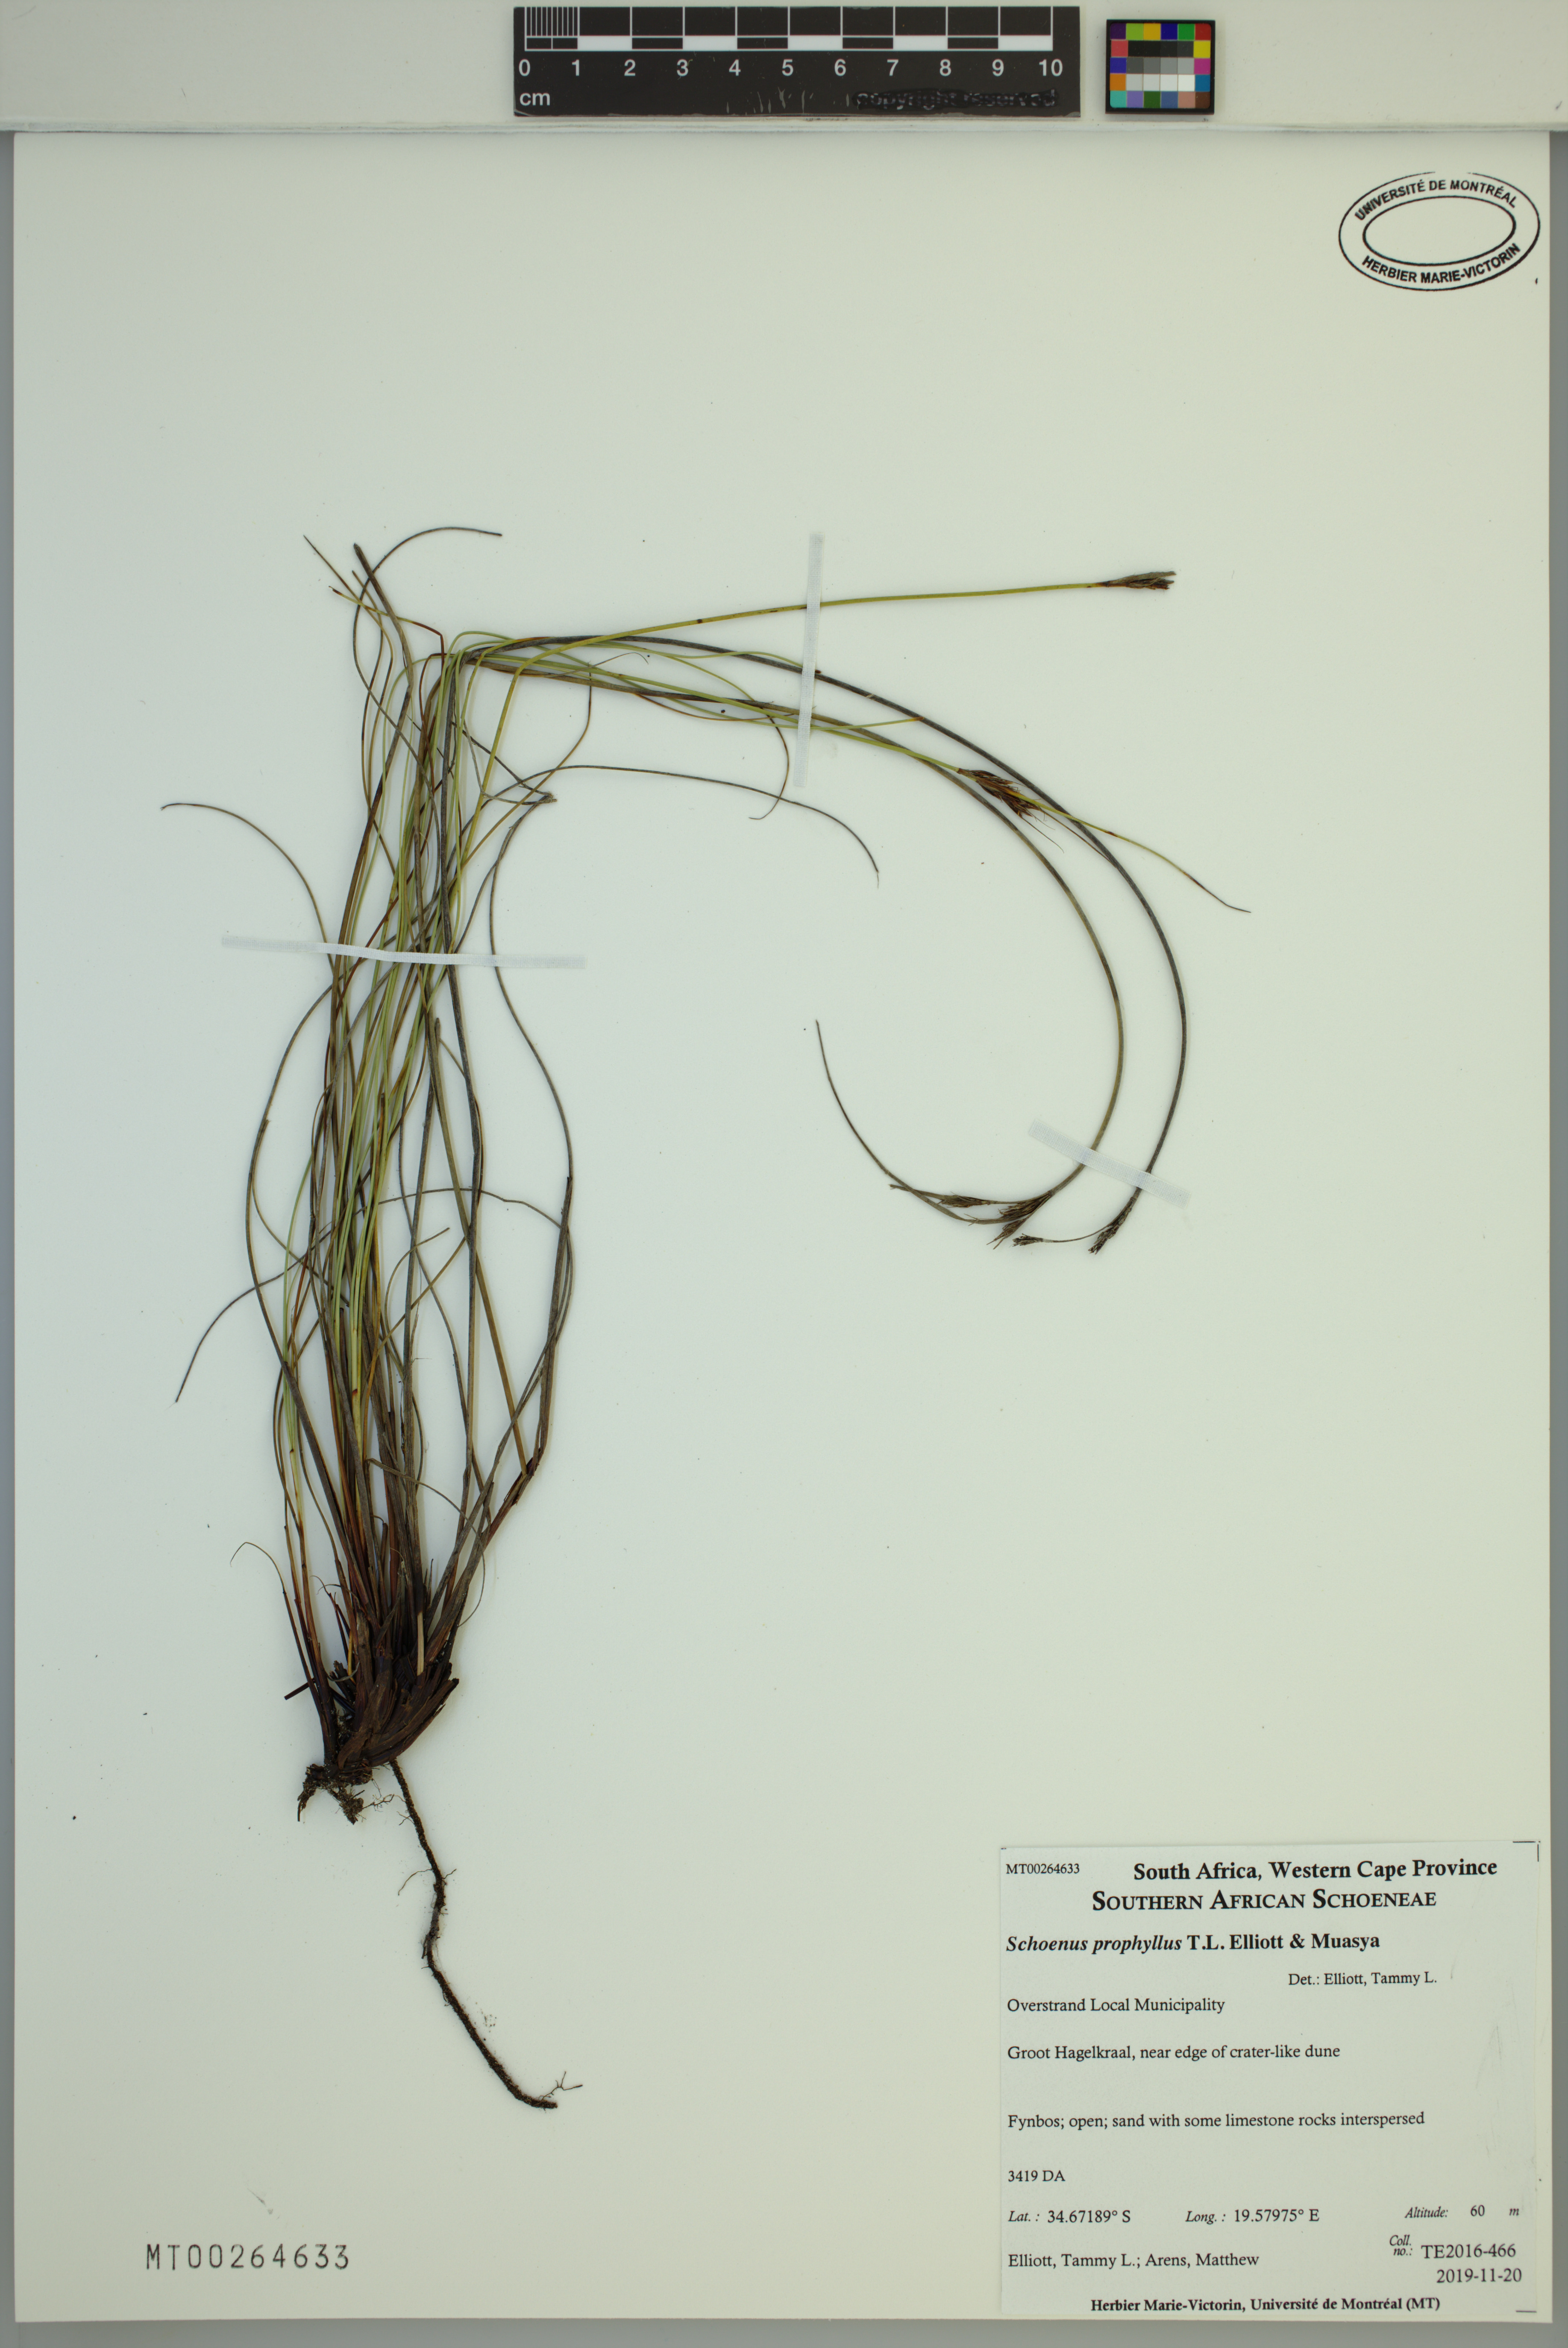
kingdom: Plantae
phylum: Tracheophyta
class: Liliopsida
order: Poales
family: Cyperaceae
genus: Schoenus
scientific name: Schoenus prophyllus
